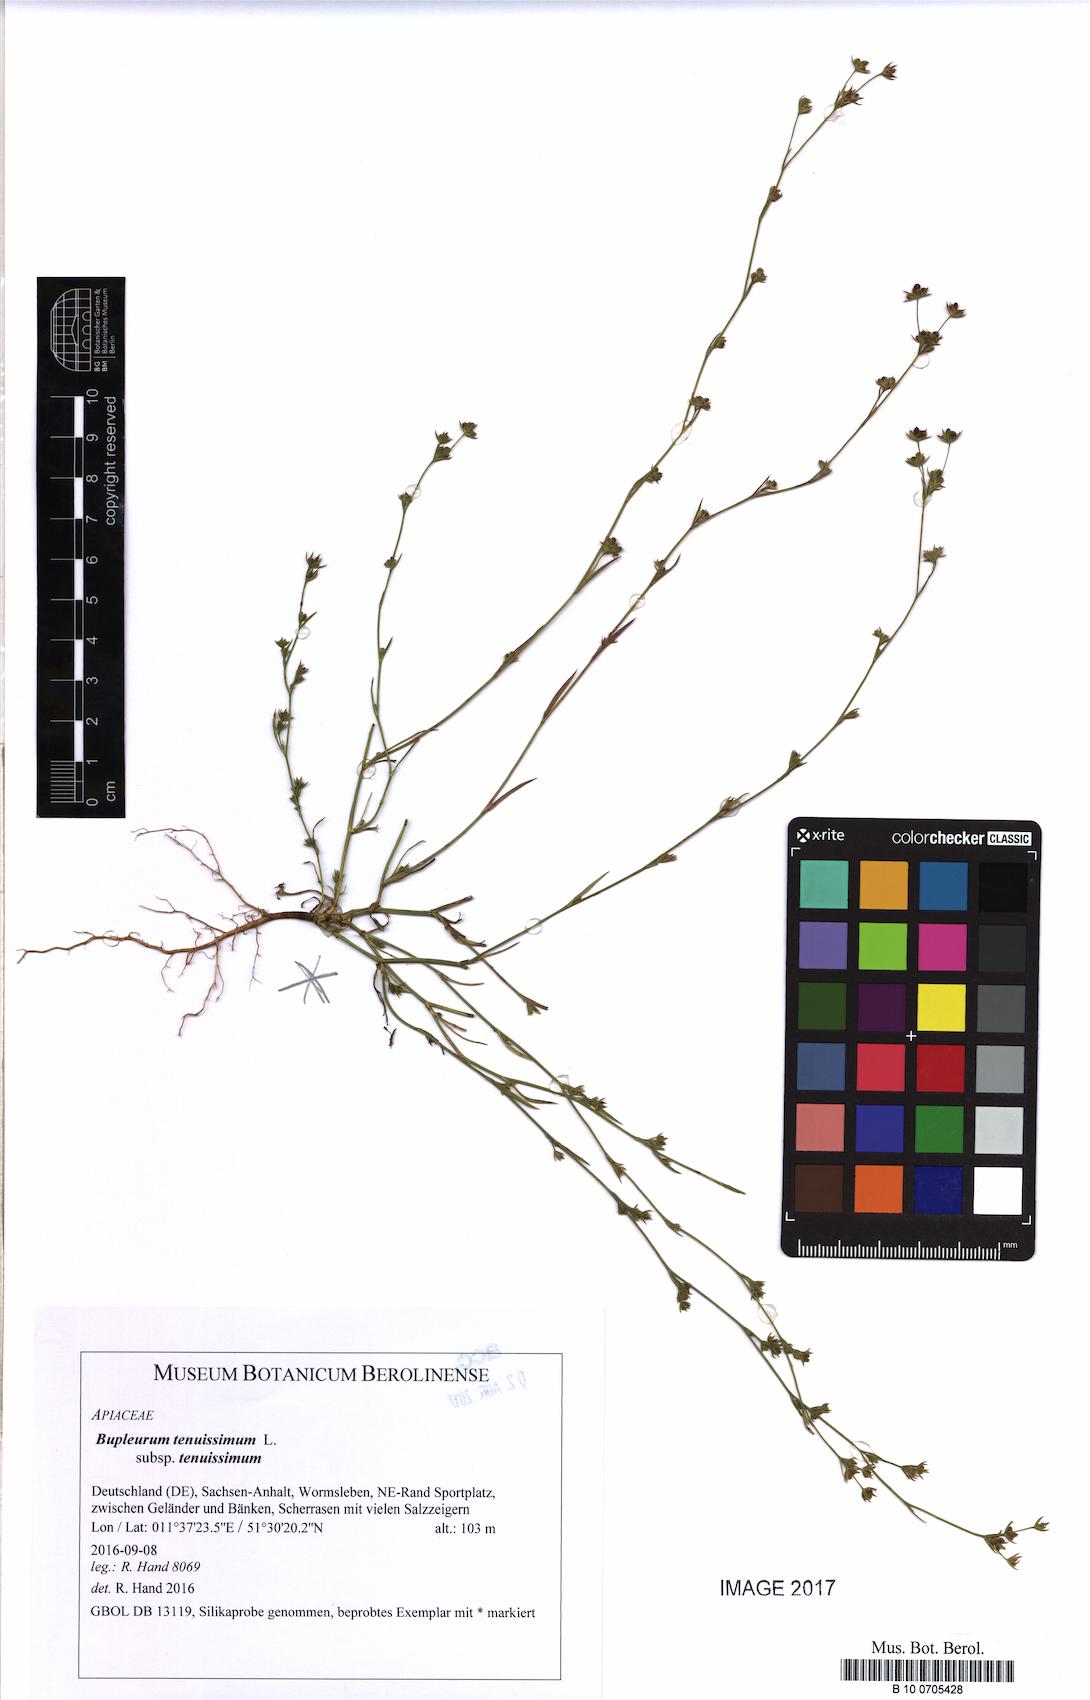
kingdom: Plantae
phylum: Tracheophyta
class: Magnoliopsida
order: Apiales
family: Apiaceae
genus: Bupleurum
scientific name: Bupleurum tenuissimum
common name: Slender hare's-ear
